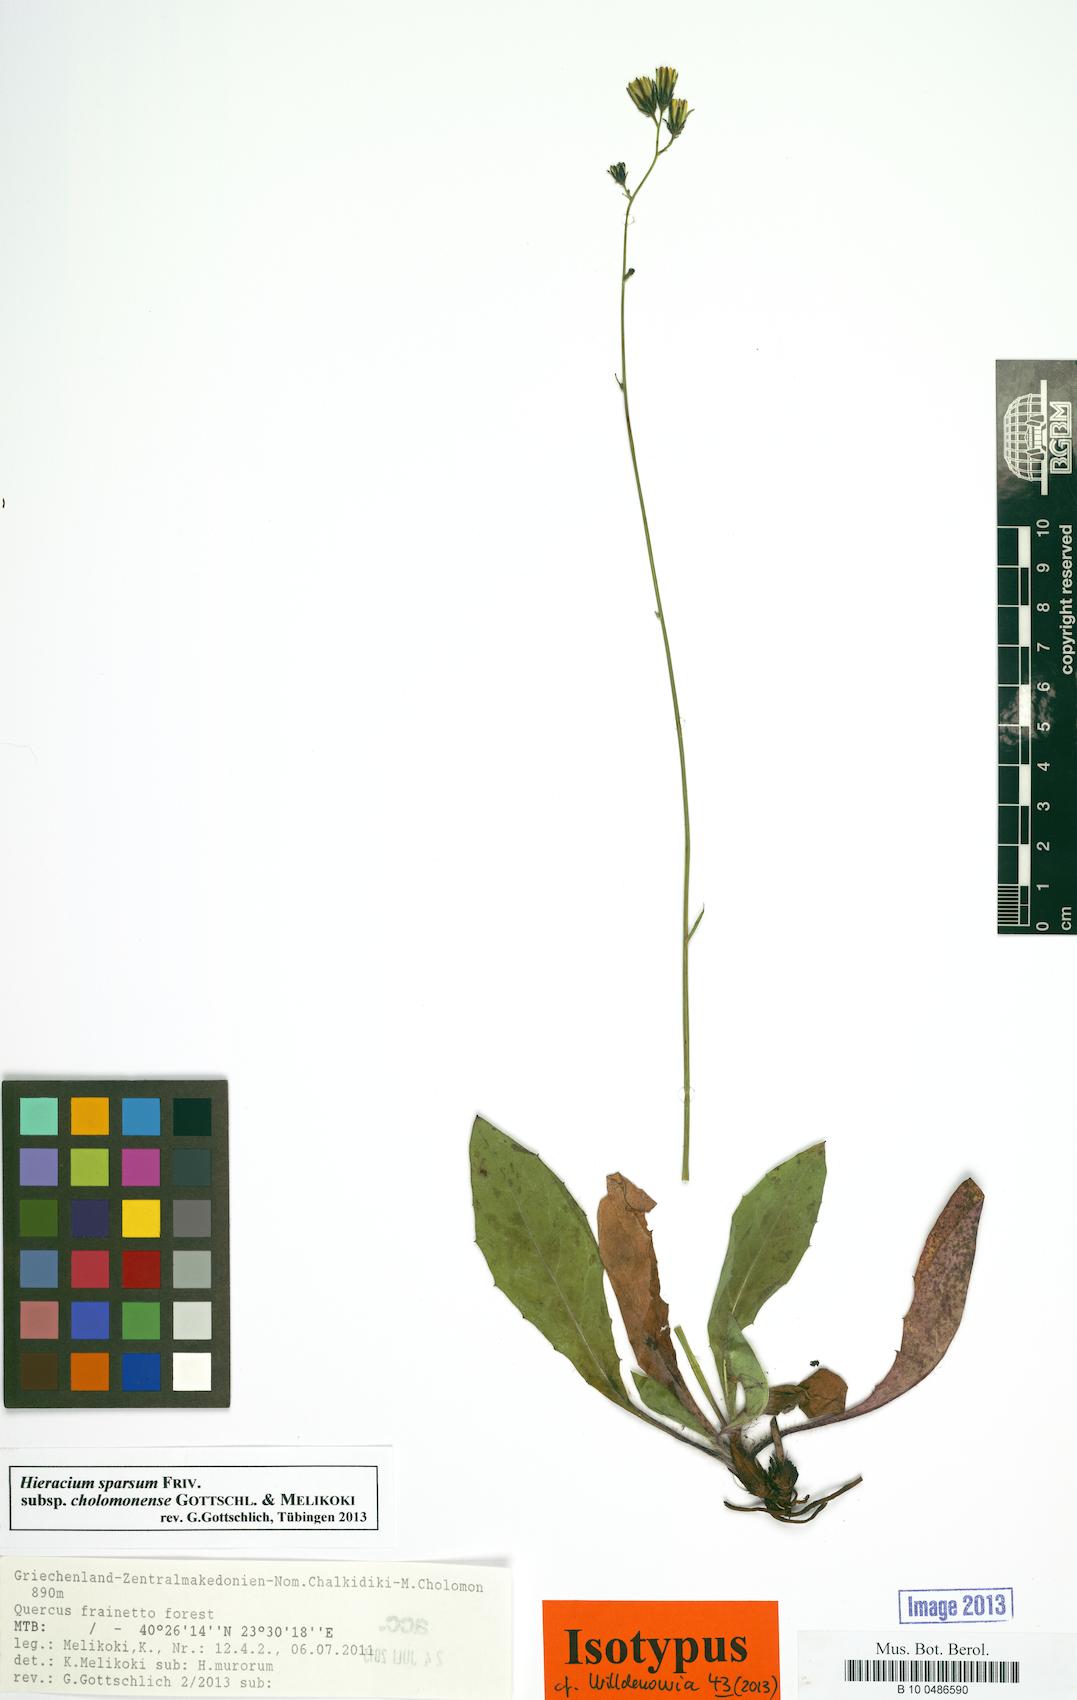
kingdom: Plantae
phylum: Tracheophyta
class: Magnoliopsida
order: Asterales
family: Asteraceae
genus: Hieracium
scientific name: Hieracium sparsum
